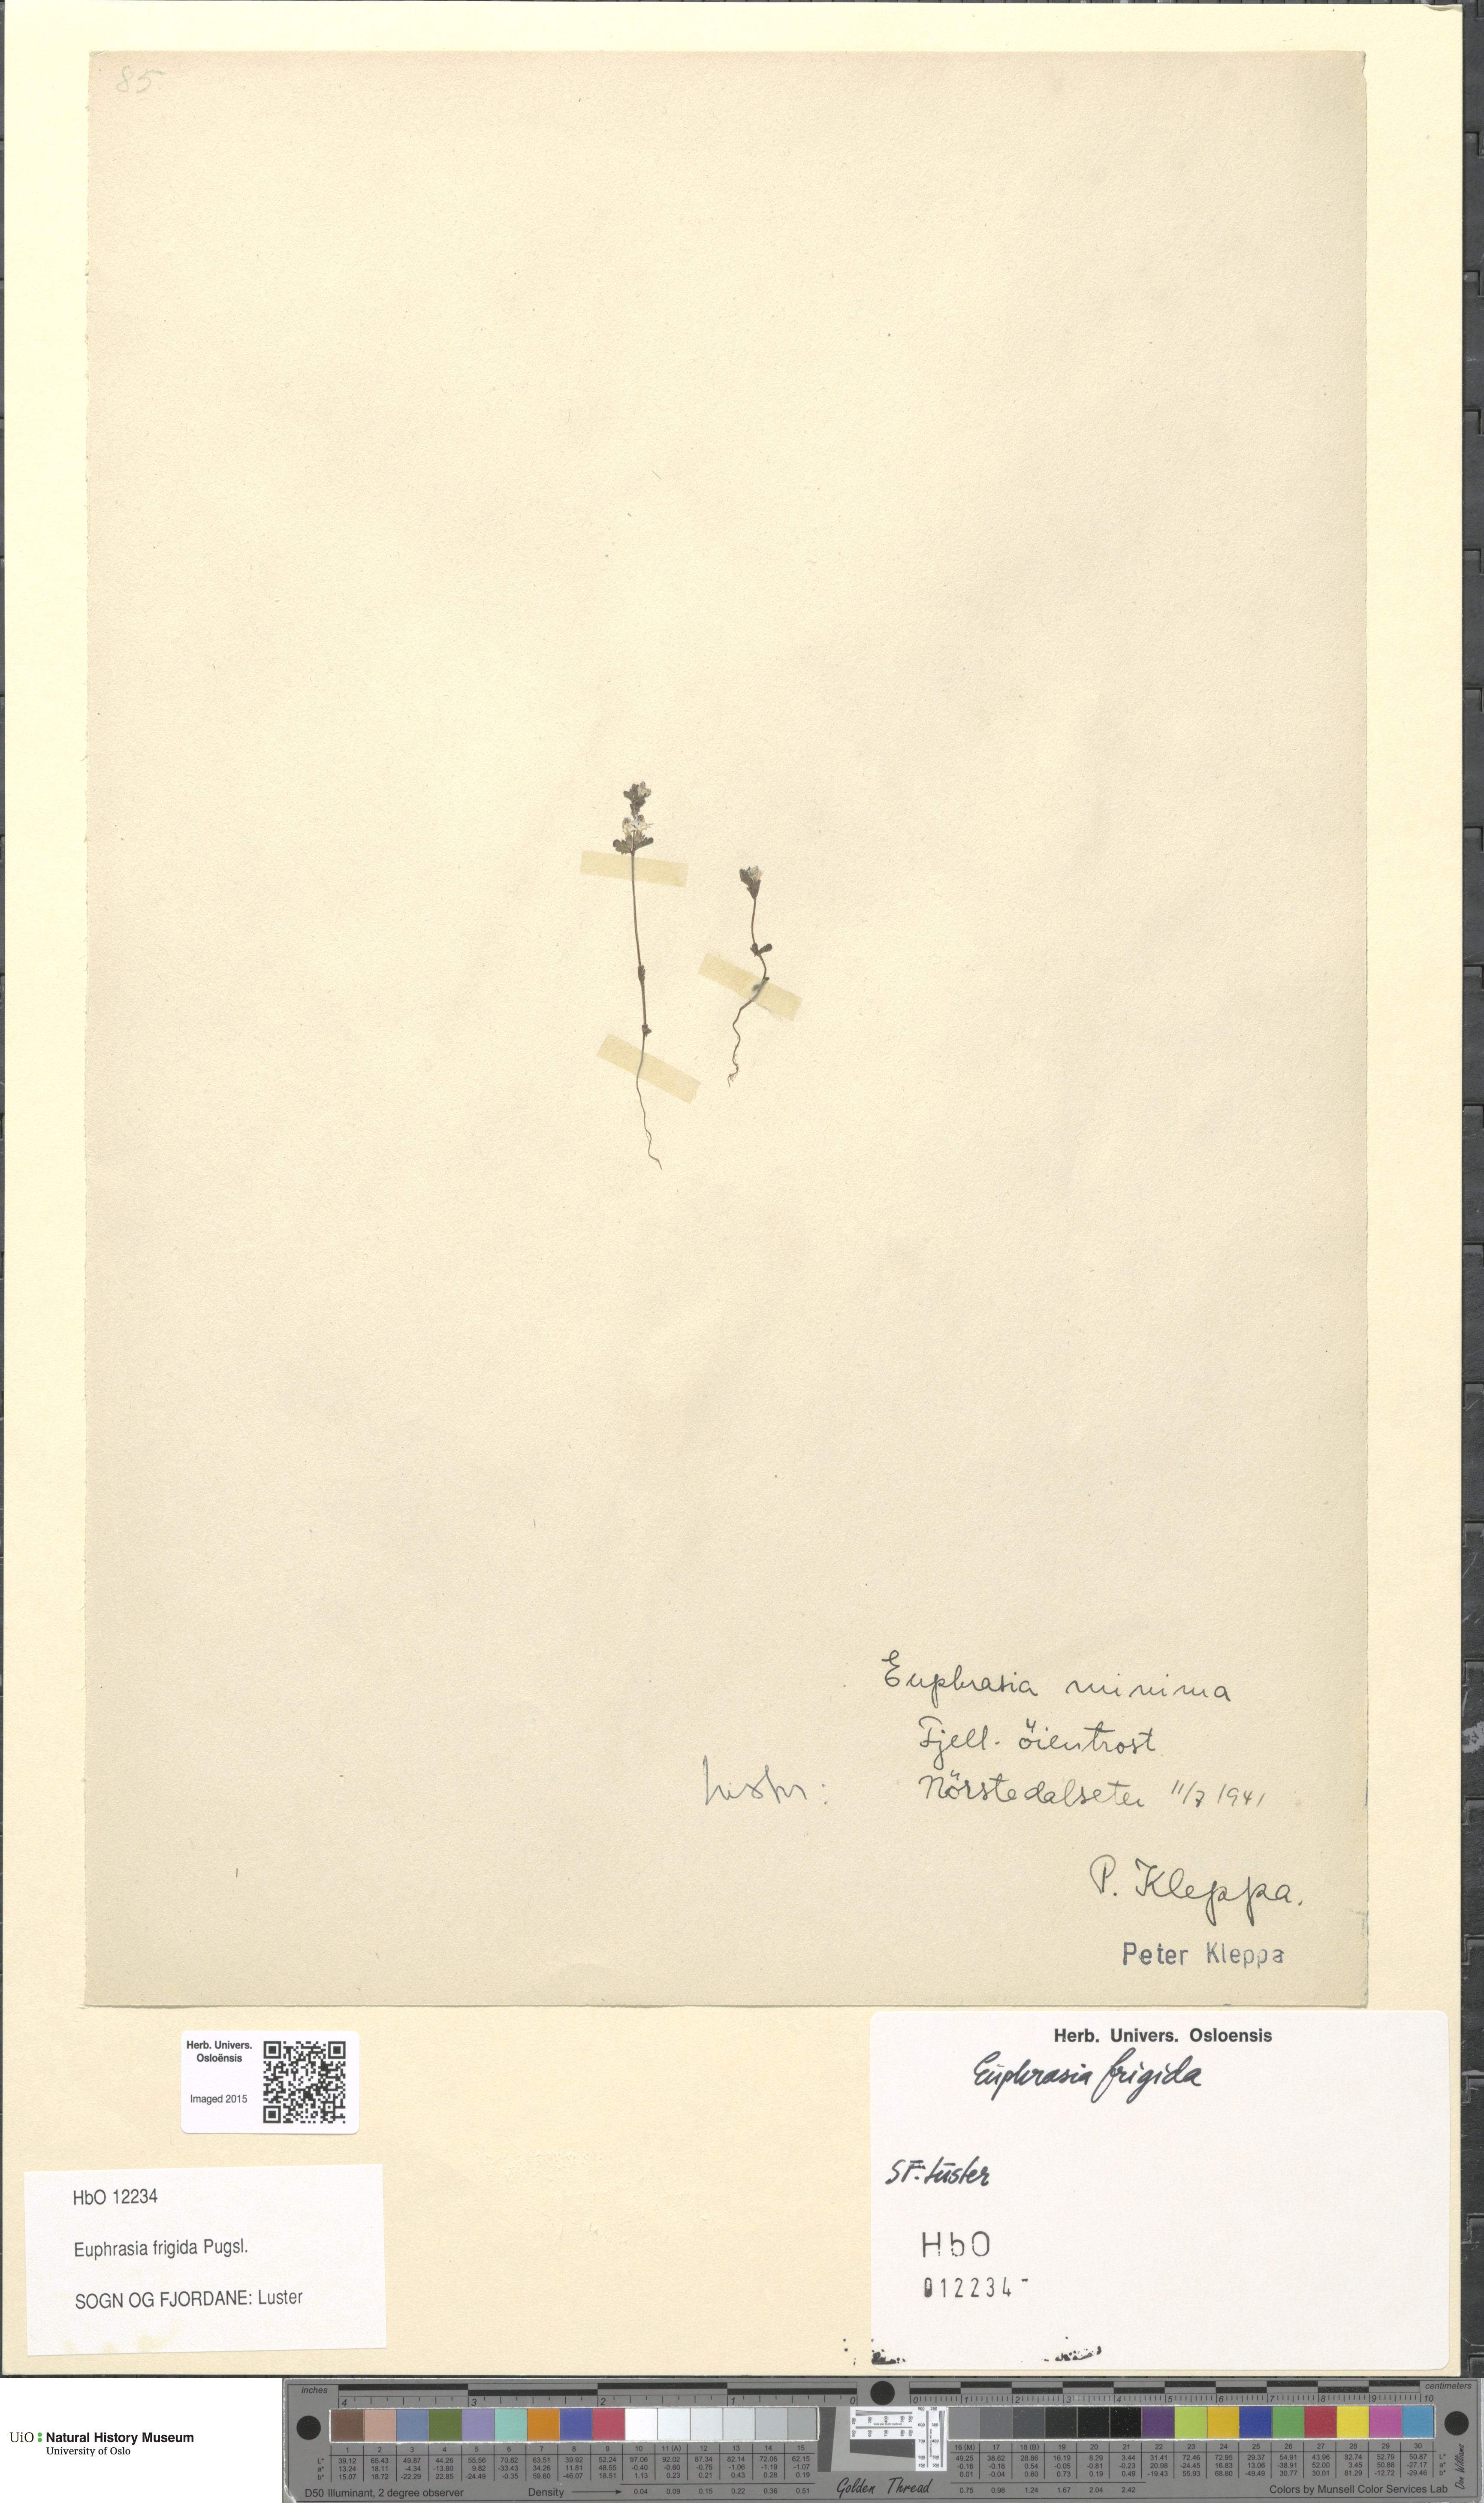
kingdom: Plantae
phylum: Tracheophyta
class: Magnoliopsida
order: Lamiales
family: Orobanchaceae
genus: Euphrasia
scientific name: Euphrasia wettsteinii
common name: Wettstein's eyebright
